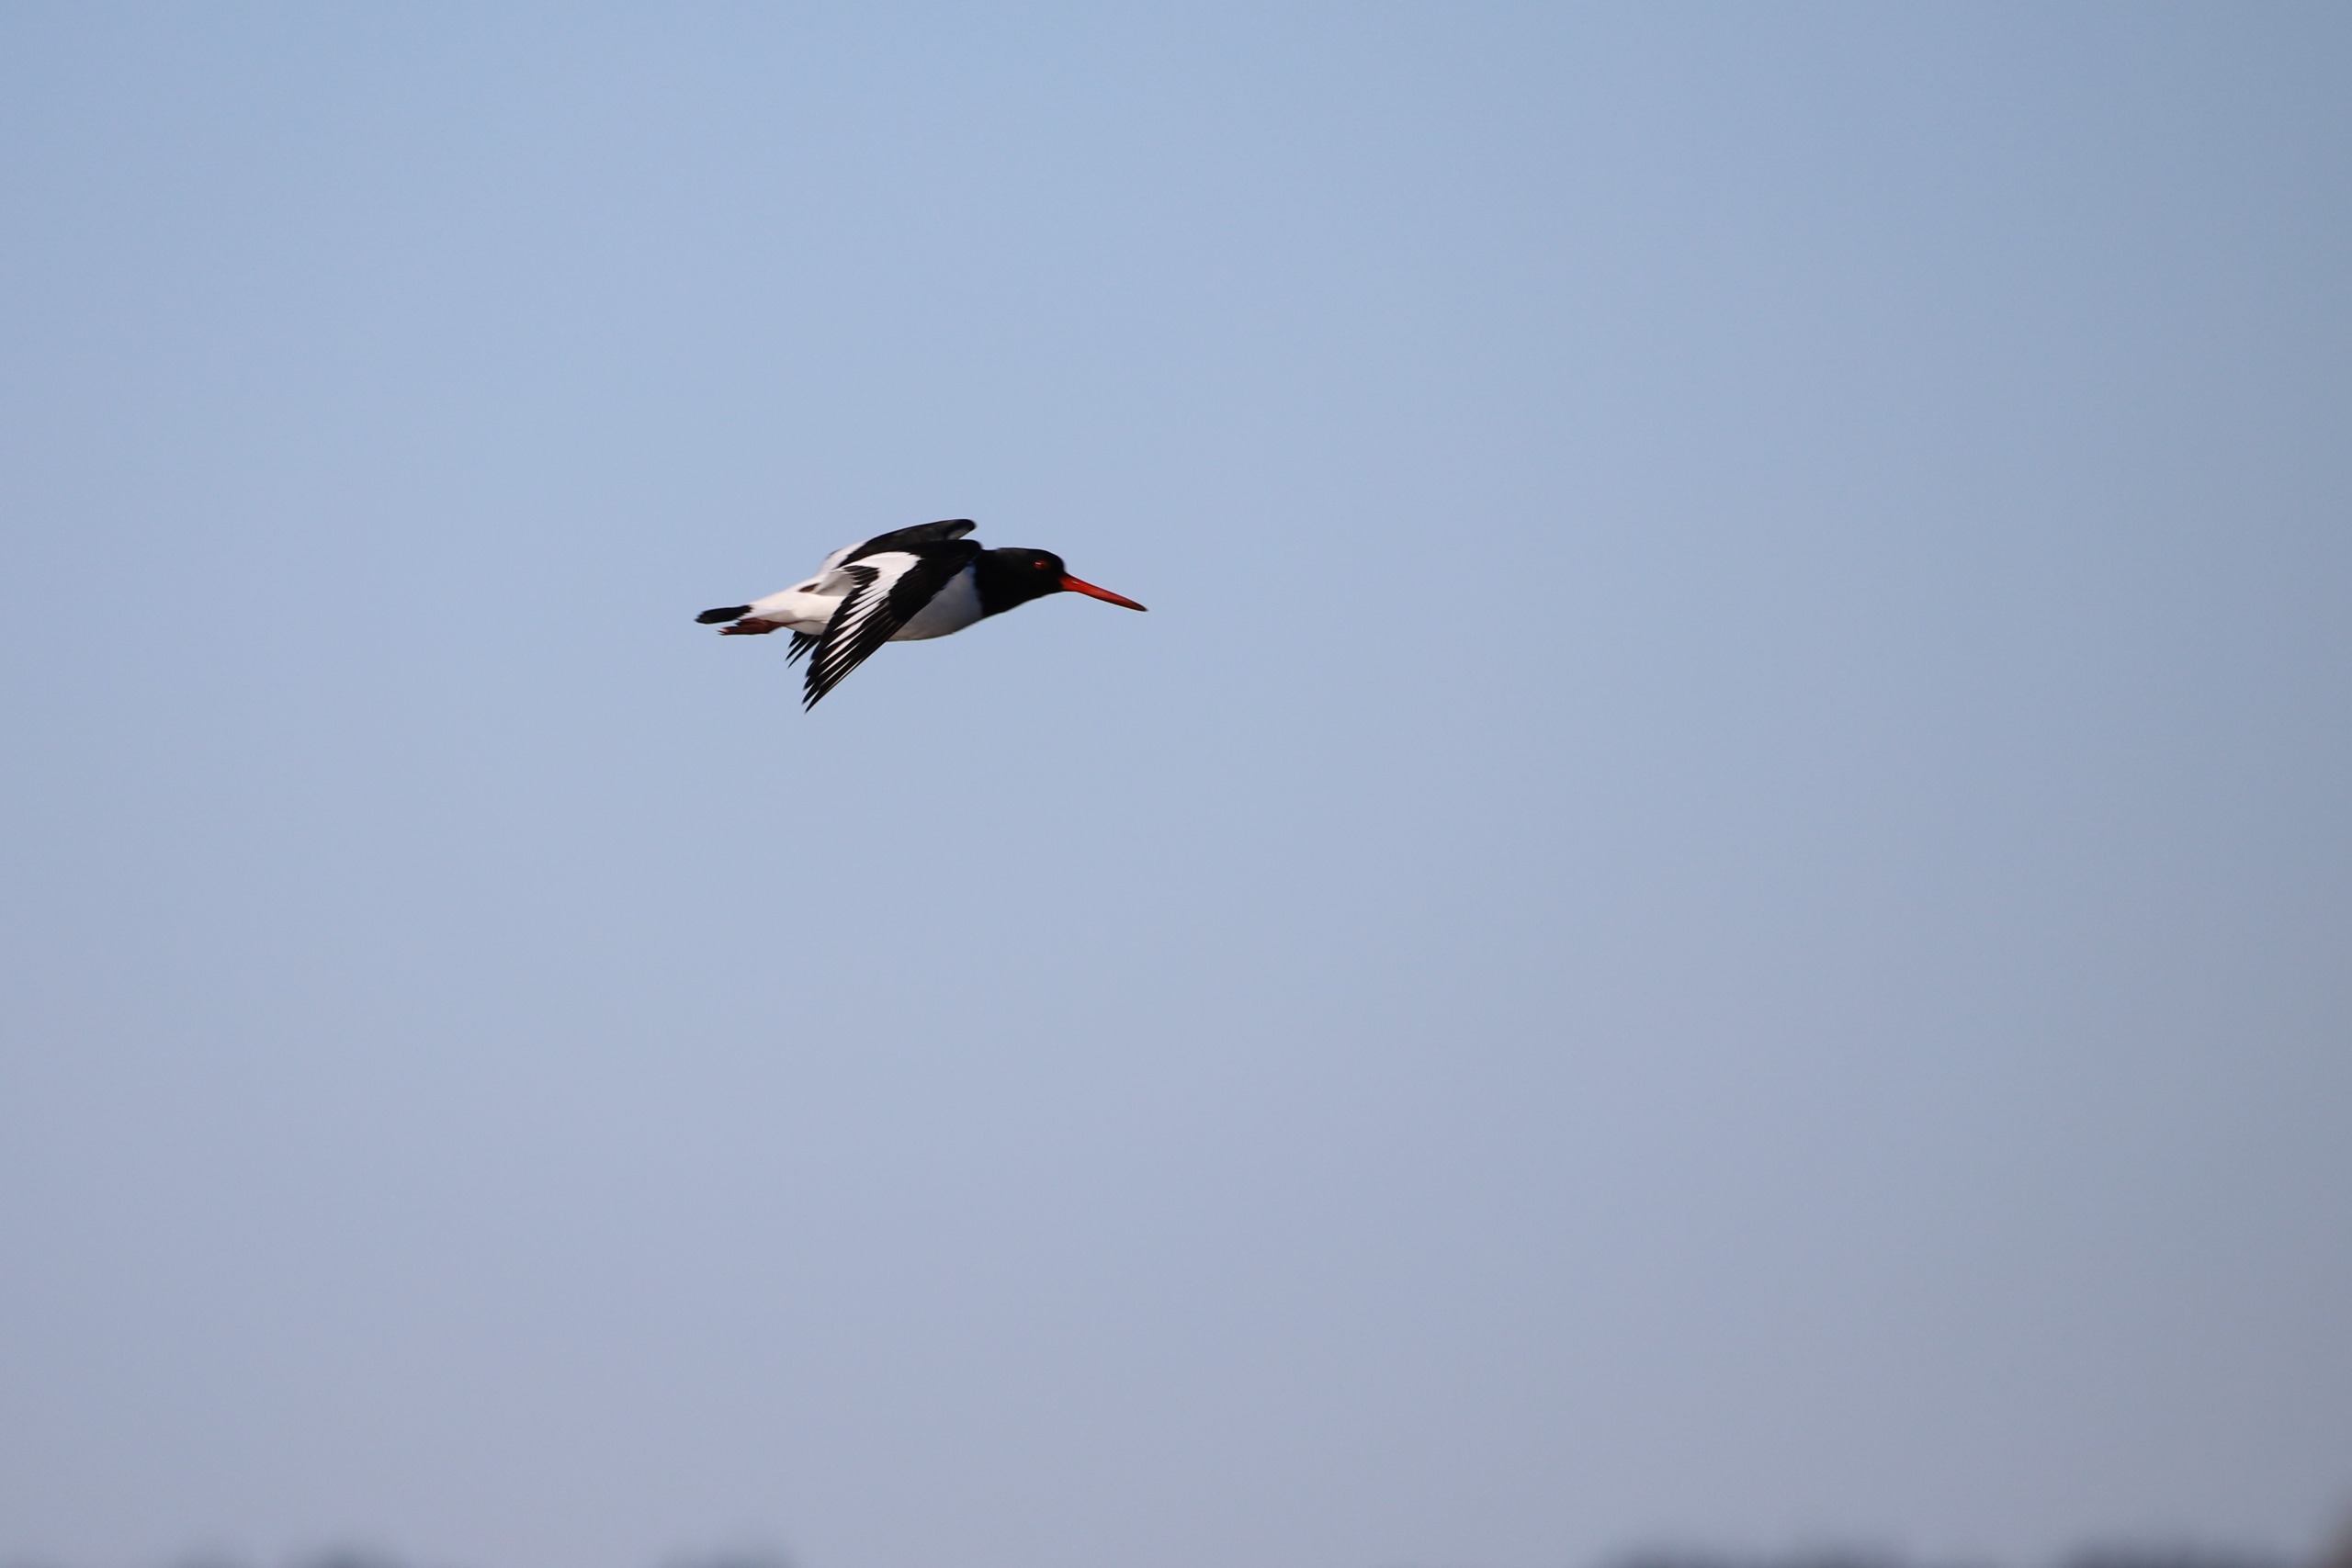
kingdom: Animalia
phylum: Chordata
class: Aves
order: Charadriiformes
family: Haematopodidae
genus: Haematopus
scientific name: Haematopus ostralegus
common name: Strandskade
